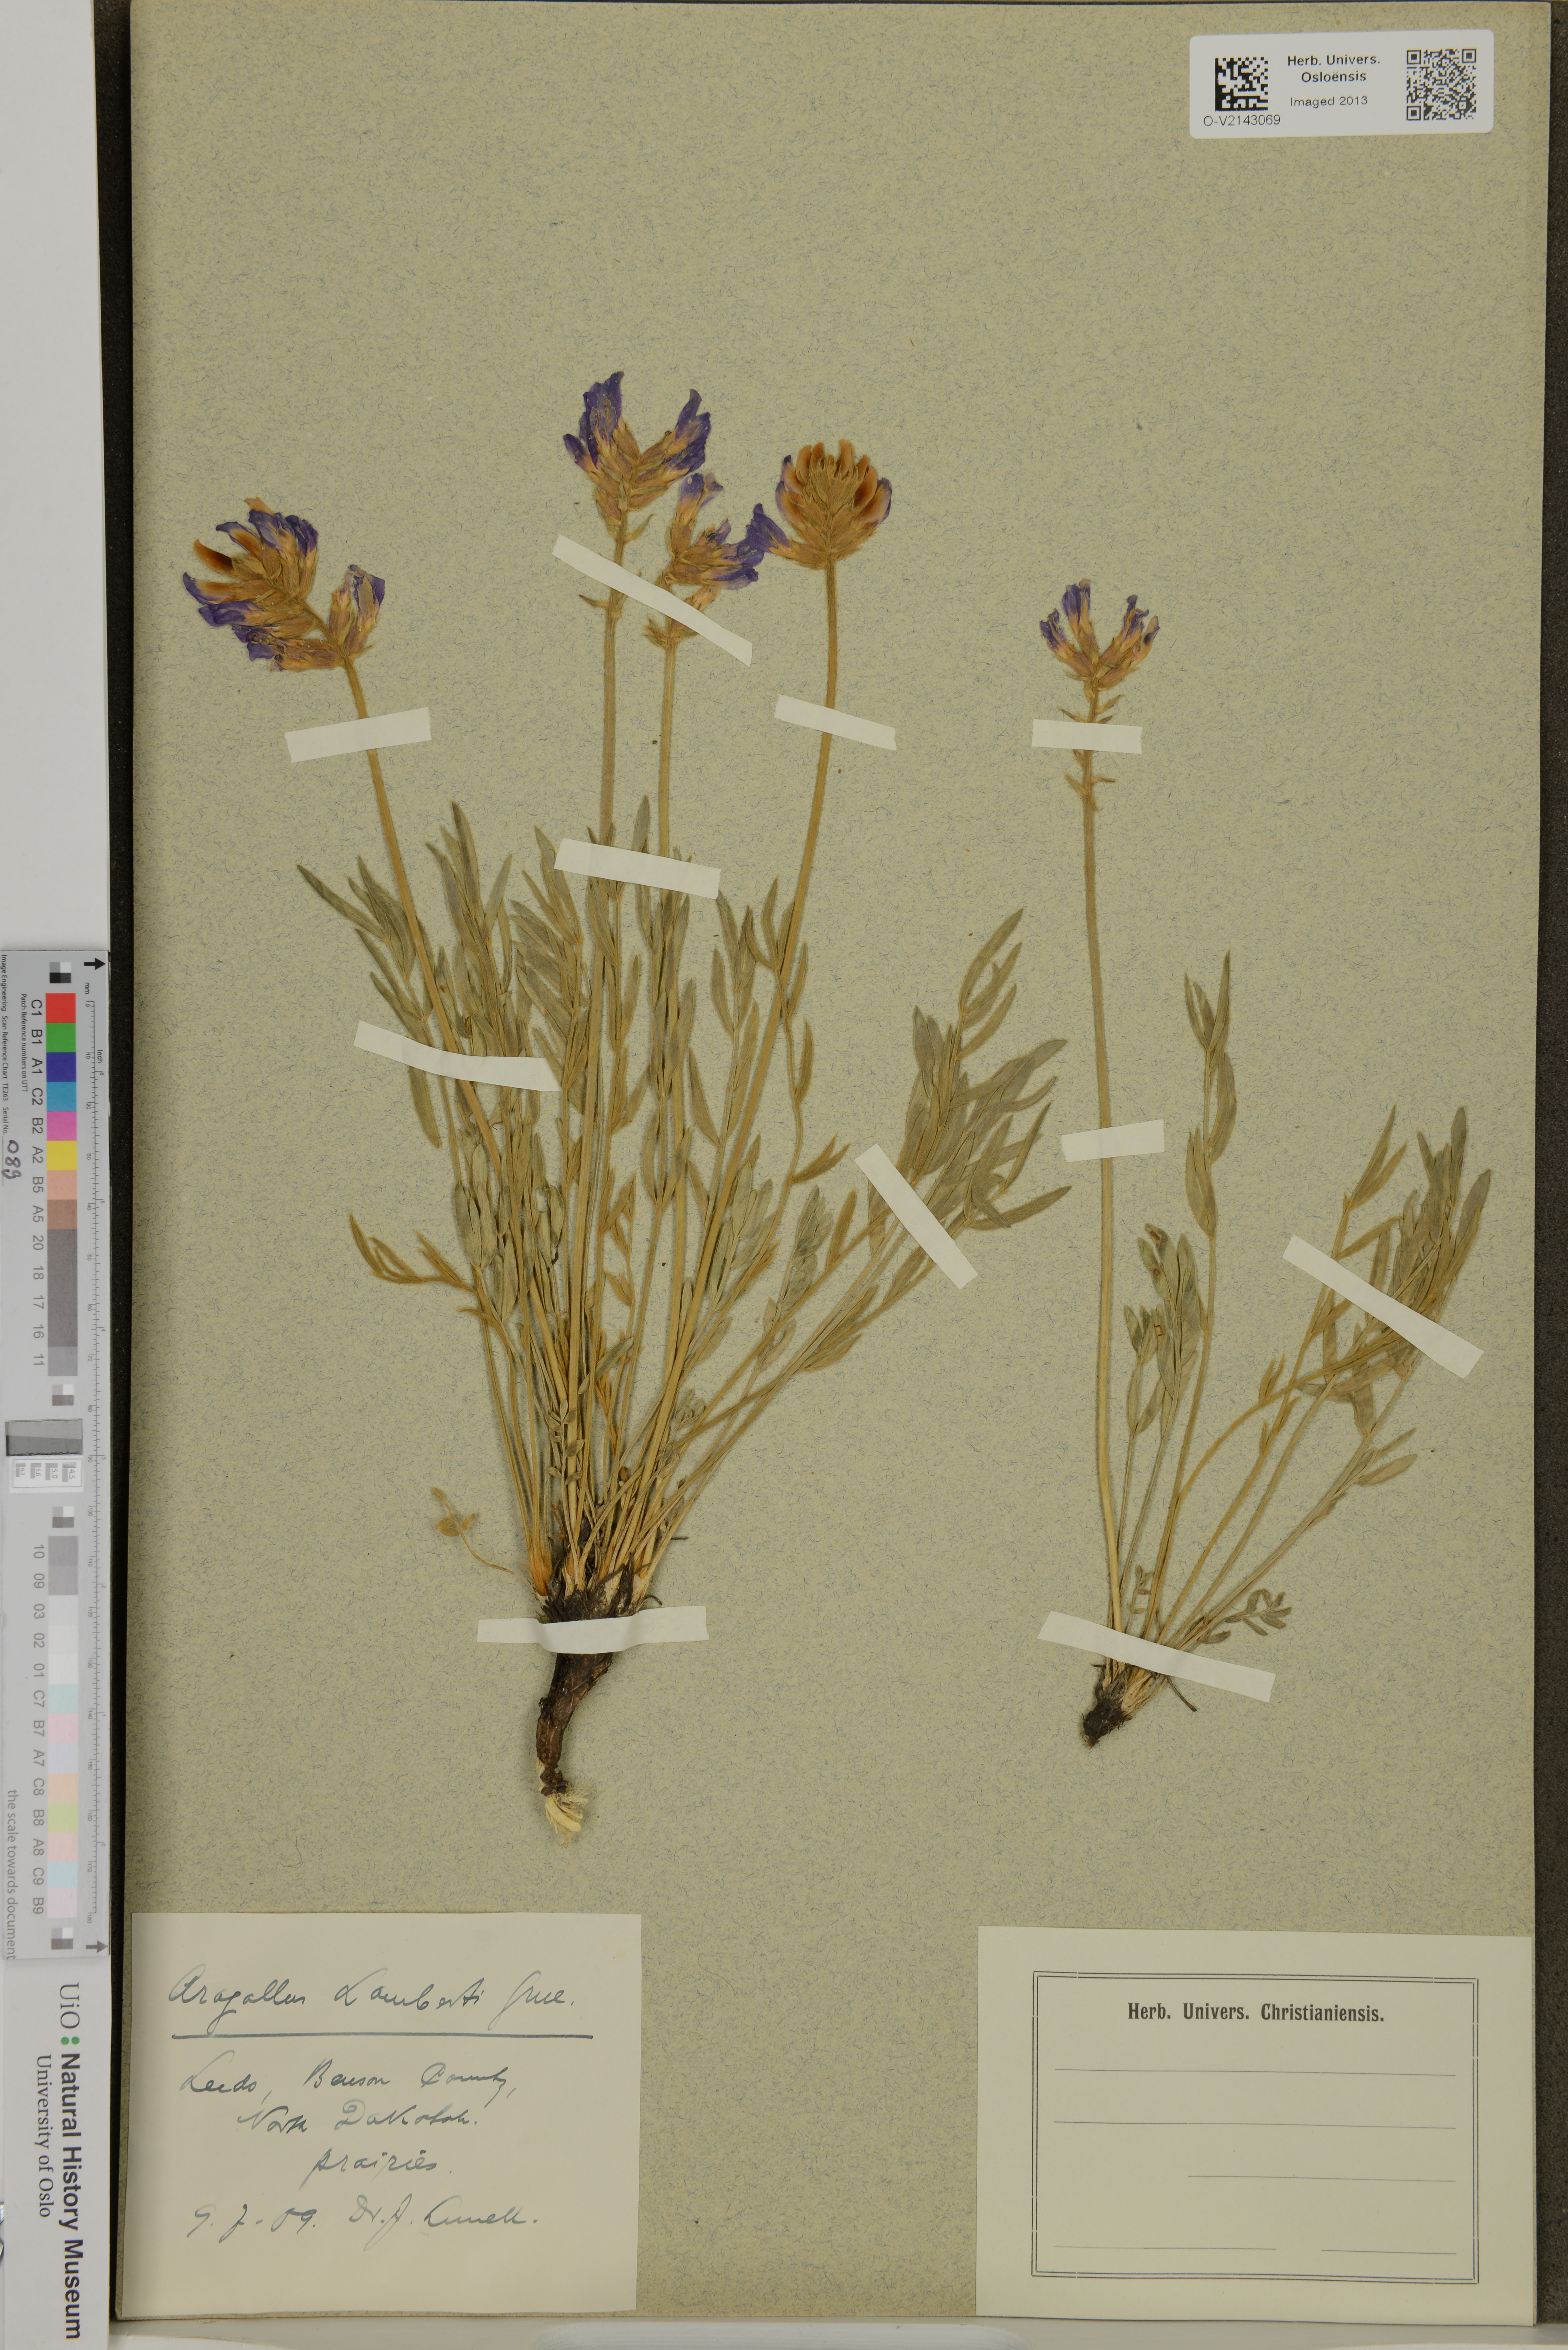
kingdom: Plantae
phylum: Tracheophyta
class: Magnoliopsida
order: Fabales
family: Fabaceae
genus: Oxytropis
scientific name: Oxytropis lambertii
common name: Purple locoweed
